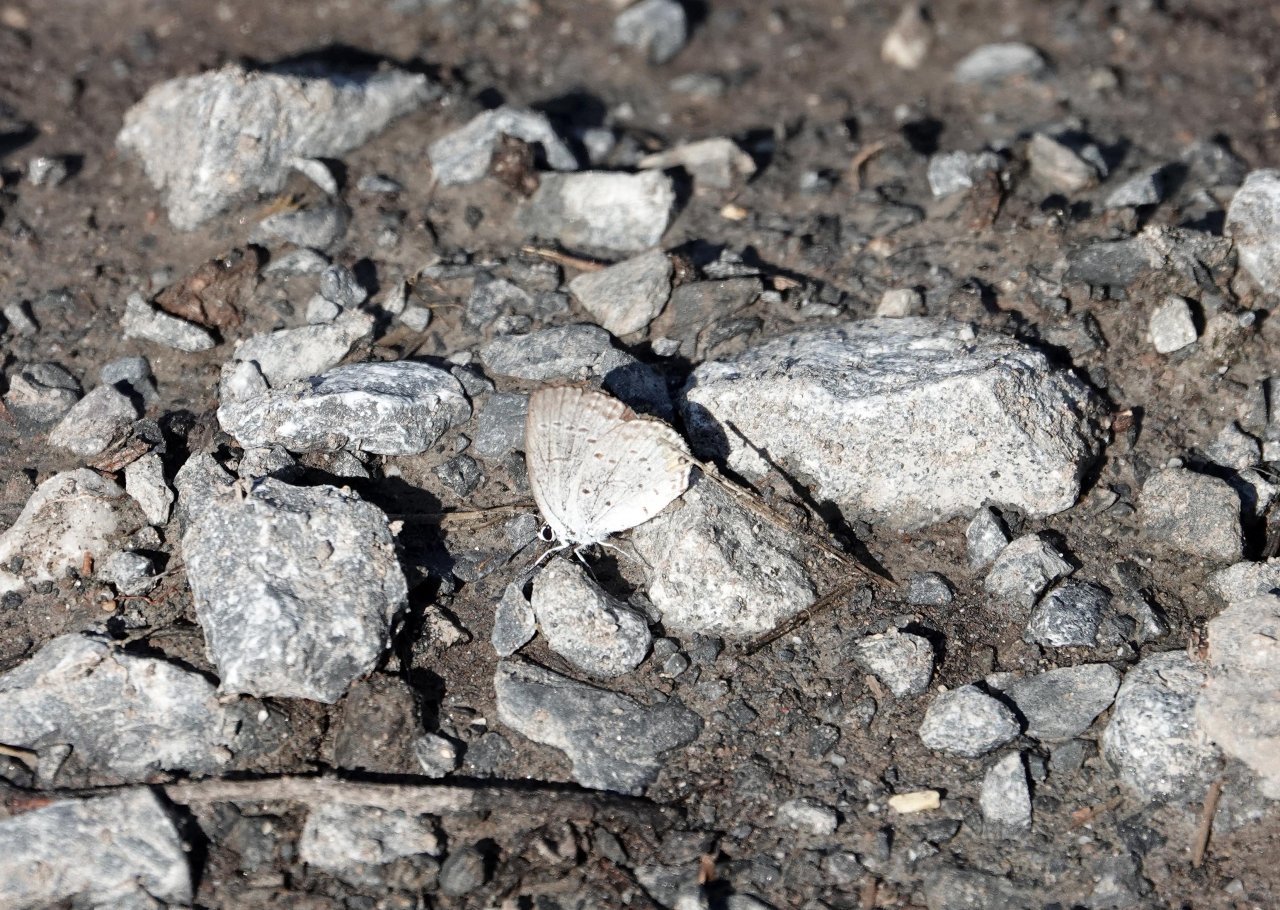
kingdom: Animalia
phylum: Arthropoda
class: Insecta
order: Lepidoptera
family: Lycaenidae
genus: Cyaniris
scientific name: Cyaniris neglecta
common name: Summer Azure
